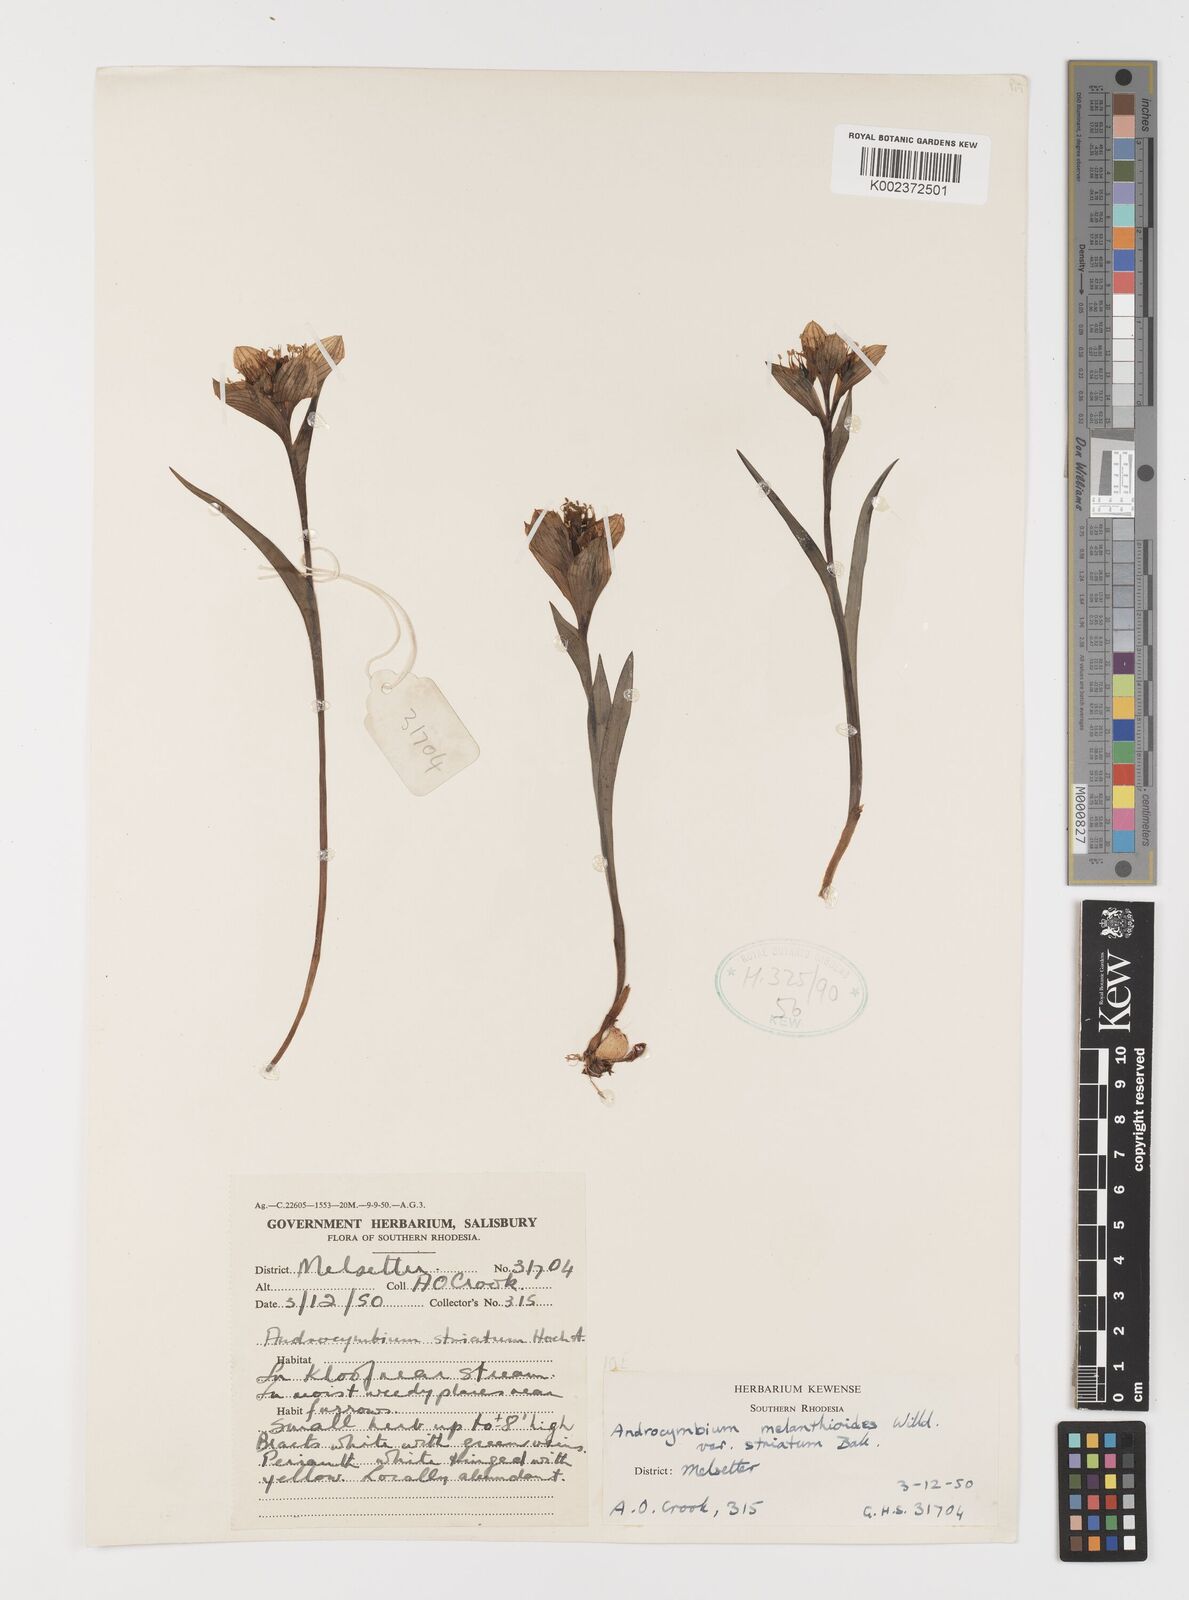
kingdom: Plantae
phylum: Tracheophyta
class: Liliopsida
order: Liliales
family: Colchicaceae
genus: Colchicum
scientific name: Colchicum striatum
